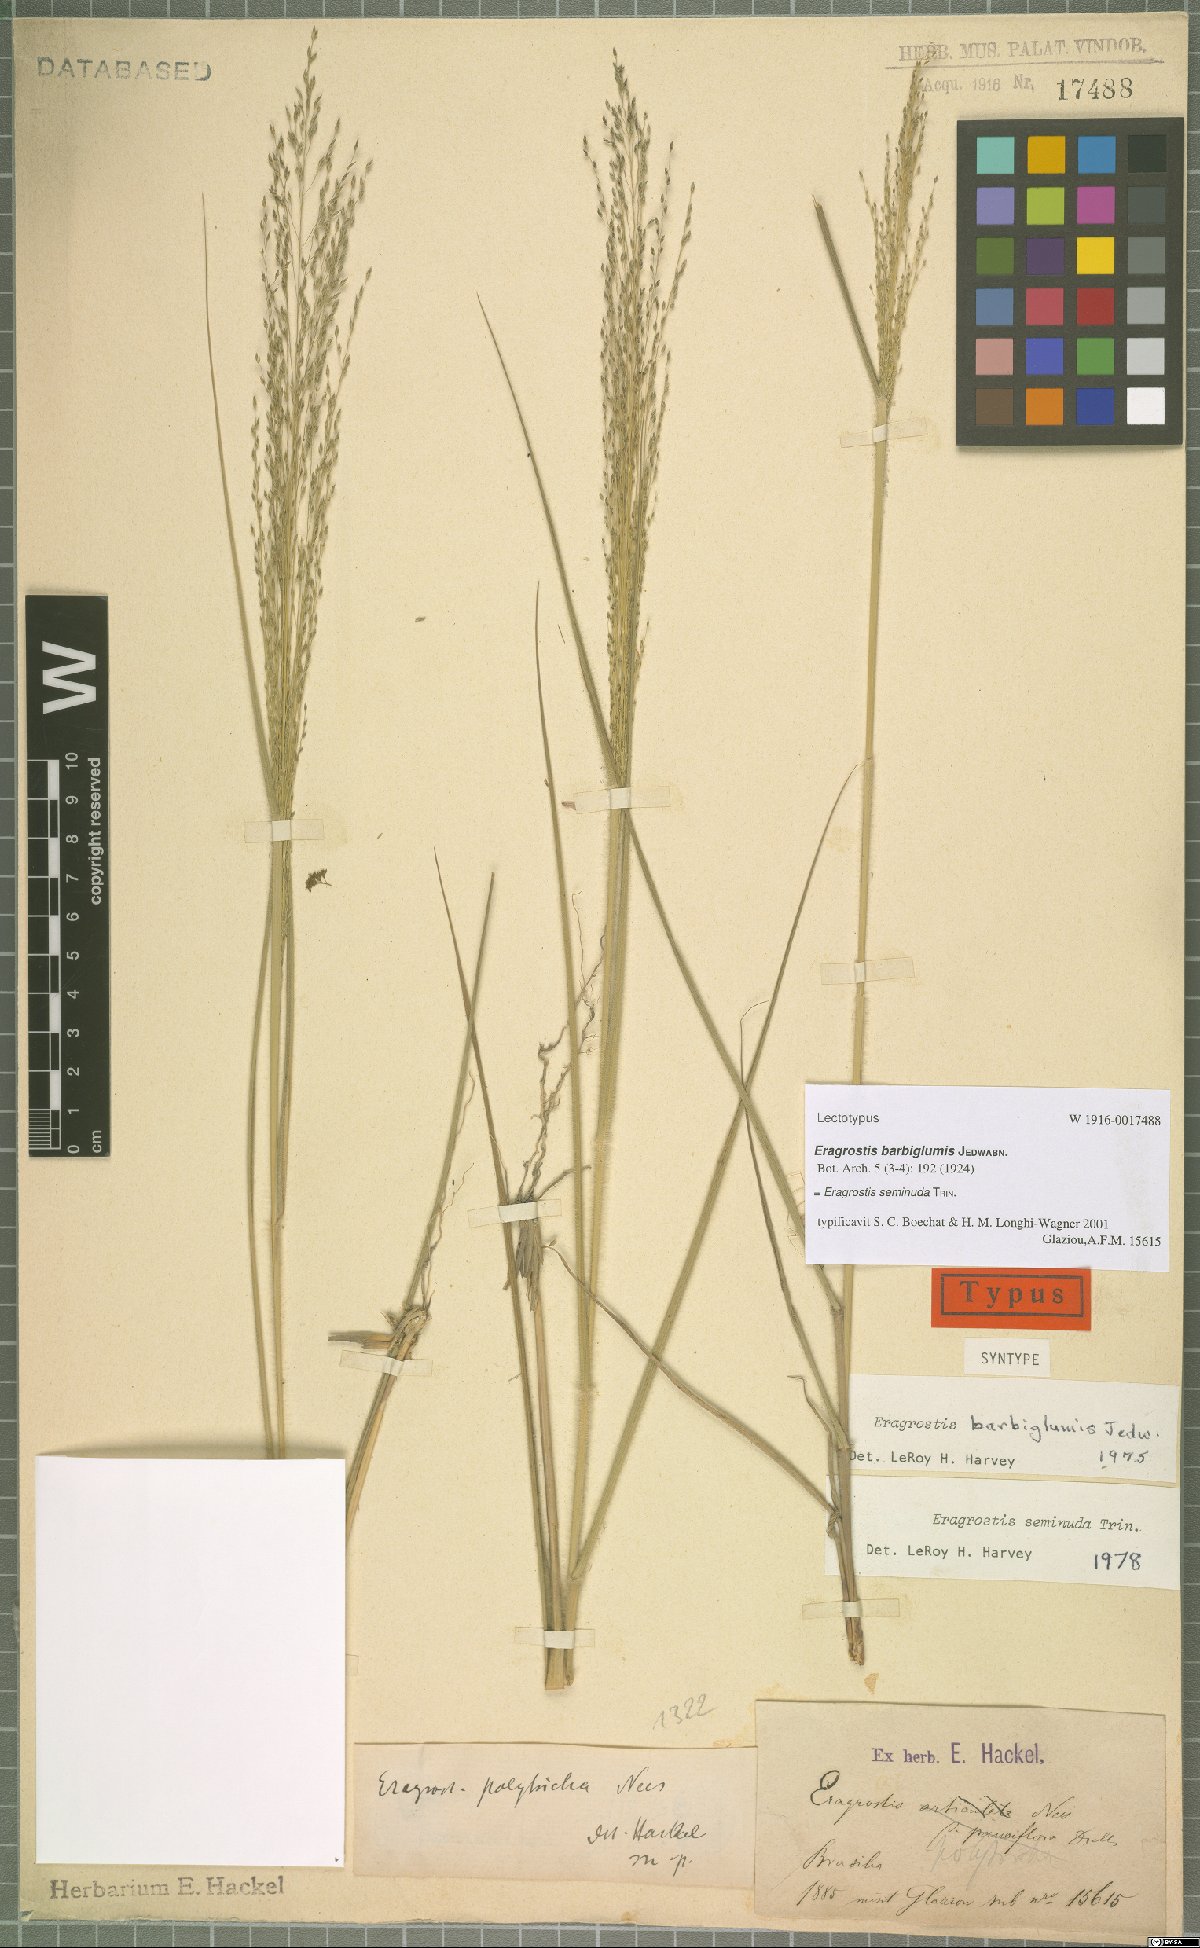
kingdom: Plantae
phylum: Tracheophyta
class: Liliopsida
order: Poales
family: Poaceae
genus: Eragrostis
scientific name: Eragrostis seminuda
